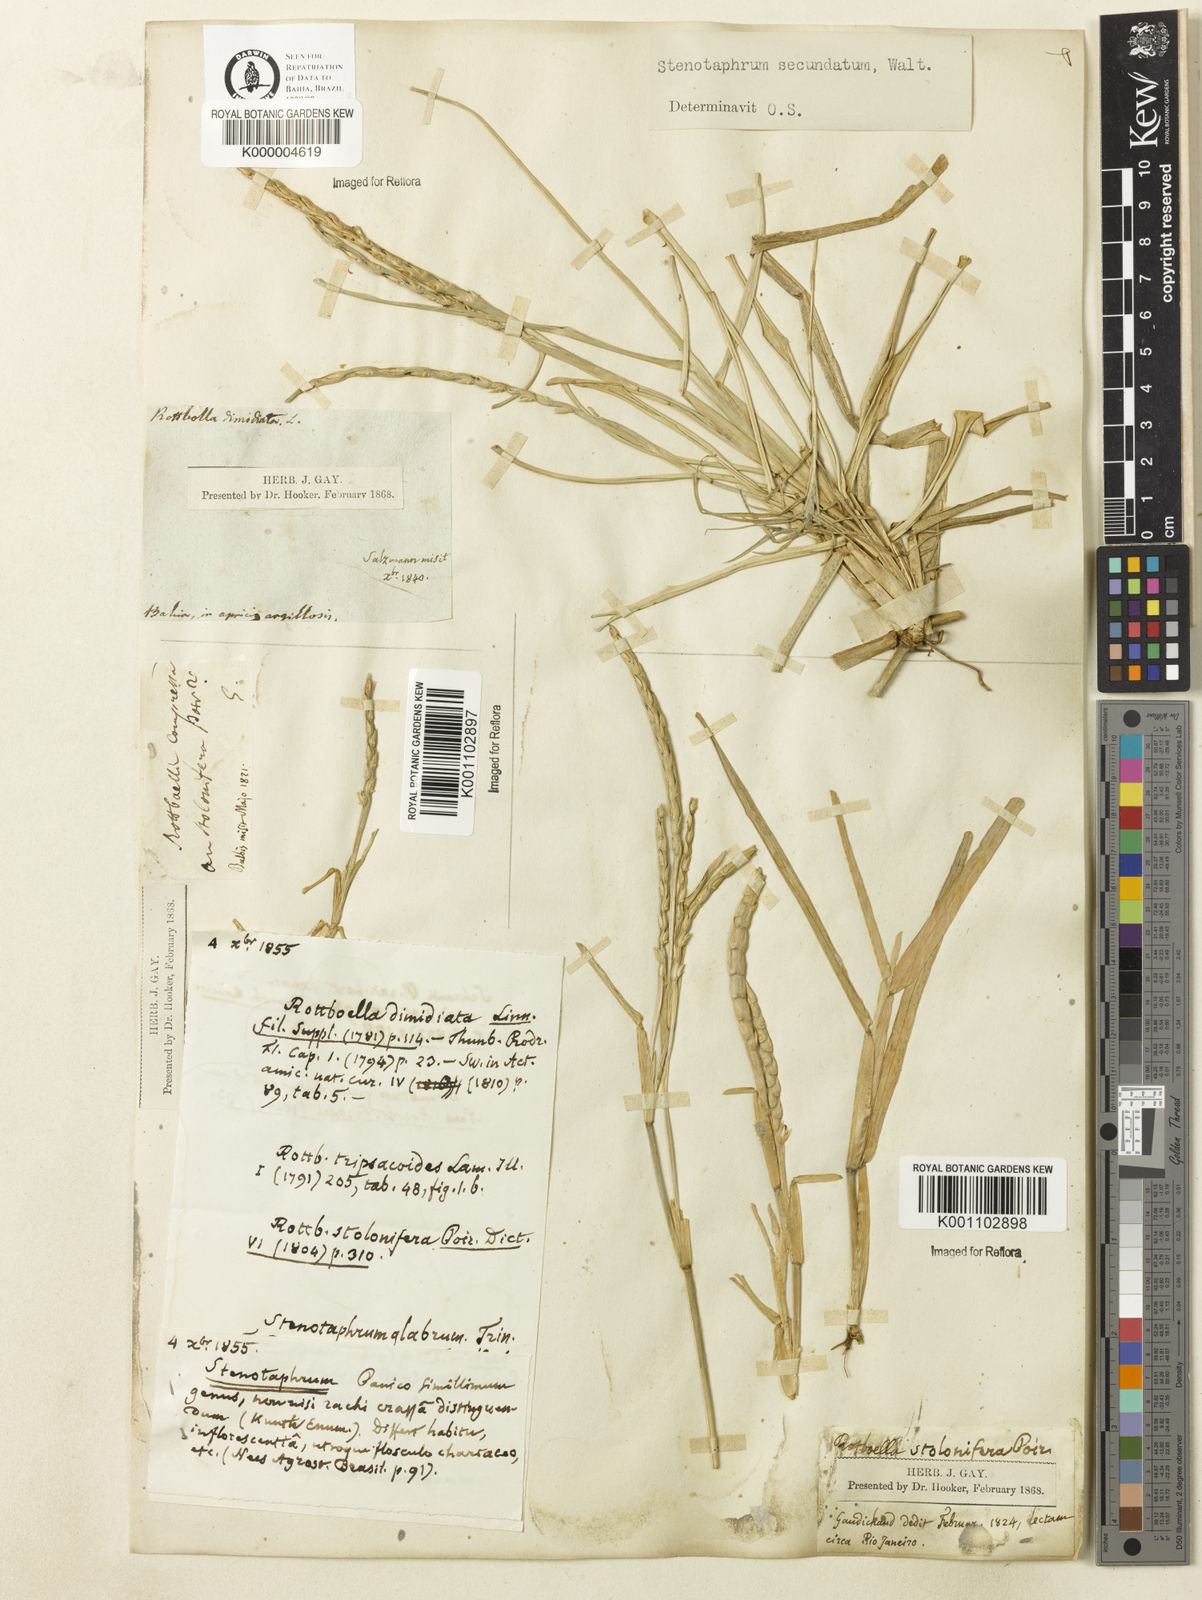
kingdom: Plantae
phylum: Tracheophyta
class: Liliopsida
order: Poales
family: Poaceae
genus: Stenotaphrum
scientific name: Stenotaphrum secundatum
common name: St. augustine grass
